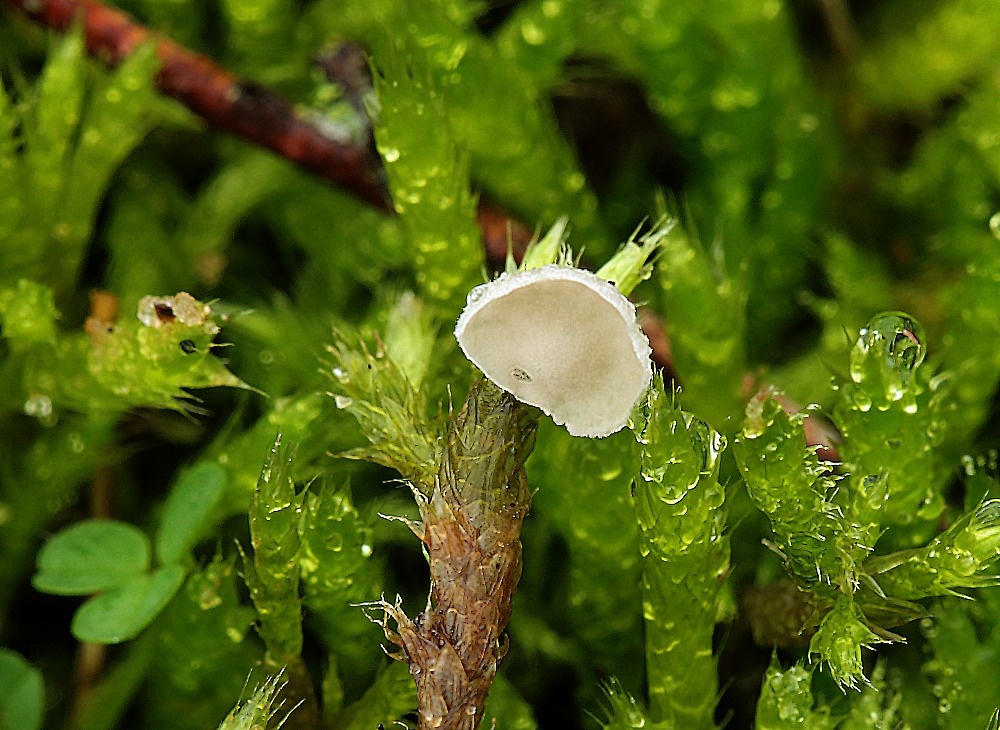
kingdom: Fungi
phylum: Basidiomycota
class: Agaricomycetes
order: Agaricales
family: Hygrophoraceae
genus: Arrhenia
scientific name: Arrhenia retiruga
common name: lille fontænehat
